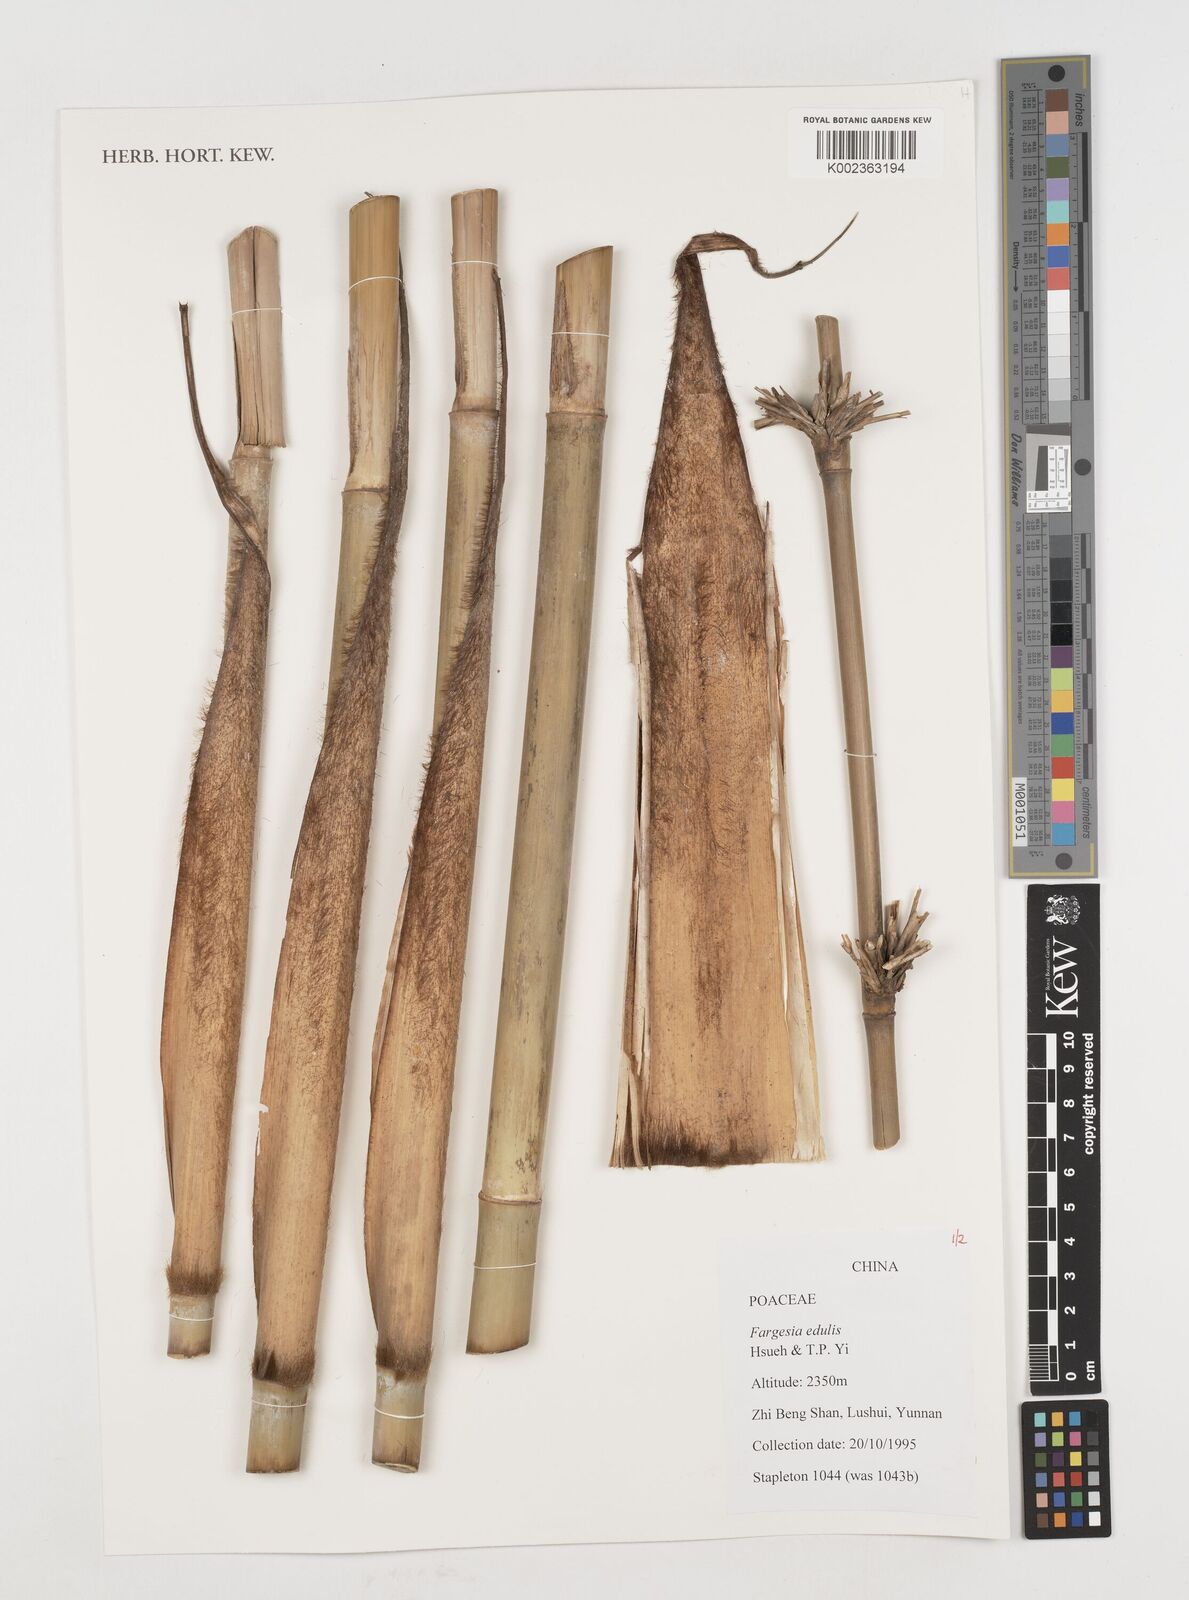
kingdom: Plantae
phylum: Tracheophyta
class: Liliopsida
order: Poales
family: Poaceae
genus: Borinda
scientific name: Borinda edulis
